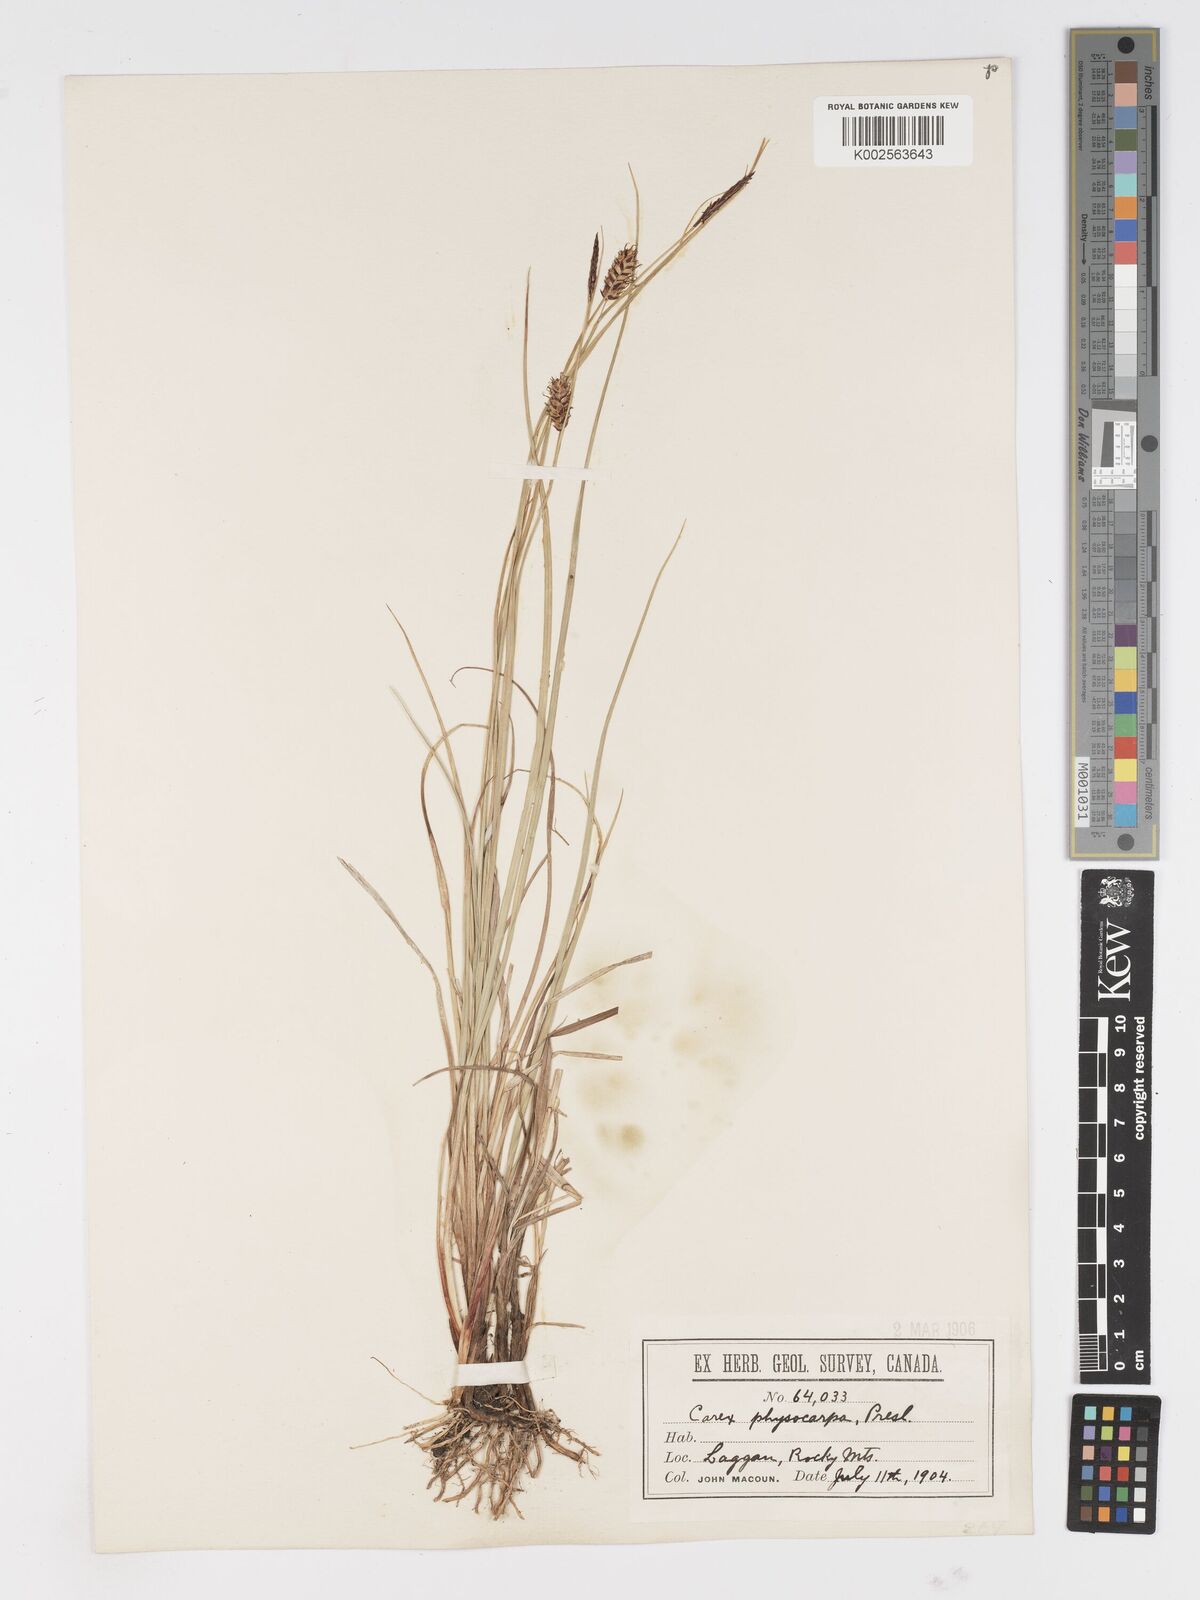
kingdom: Plantae
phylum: Tracheophyta
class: Liliopsida
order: Poales
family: Cyperaceae
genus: Carex
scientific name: Carex saxatilis
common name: Russet sedge
